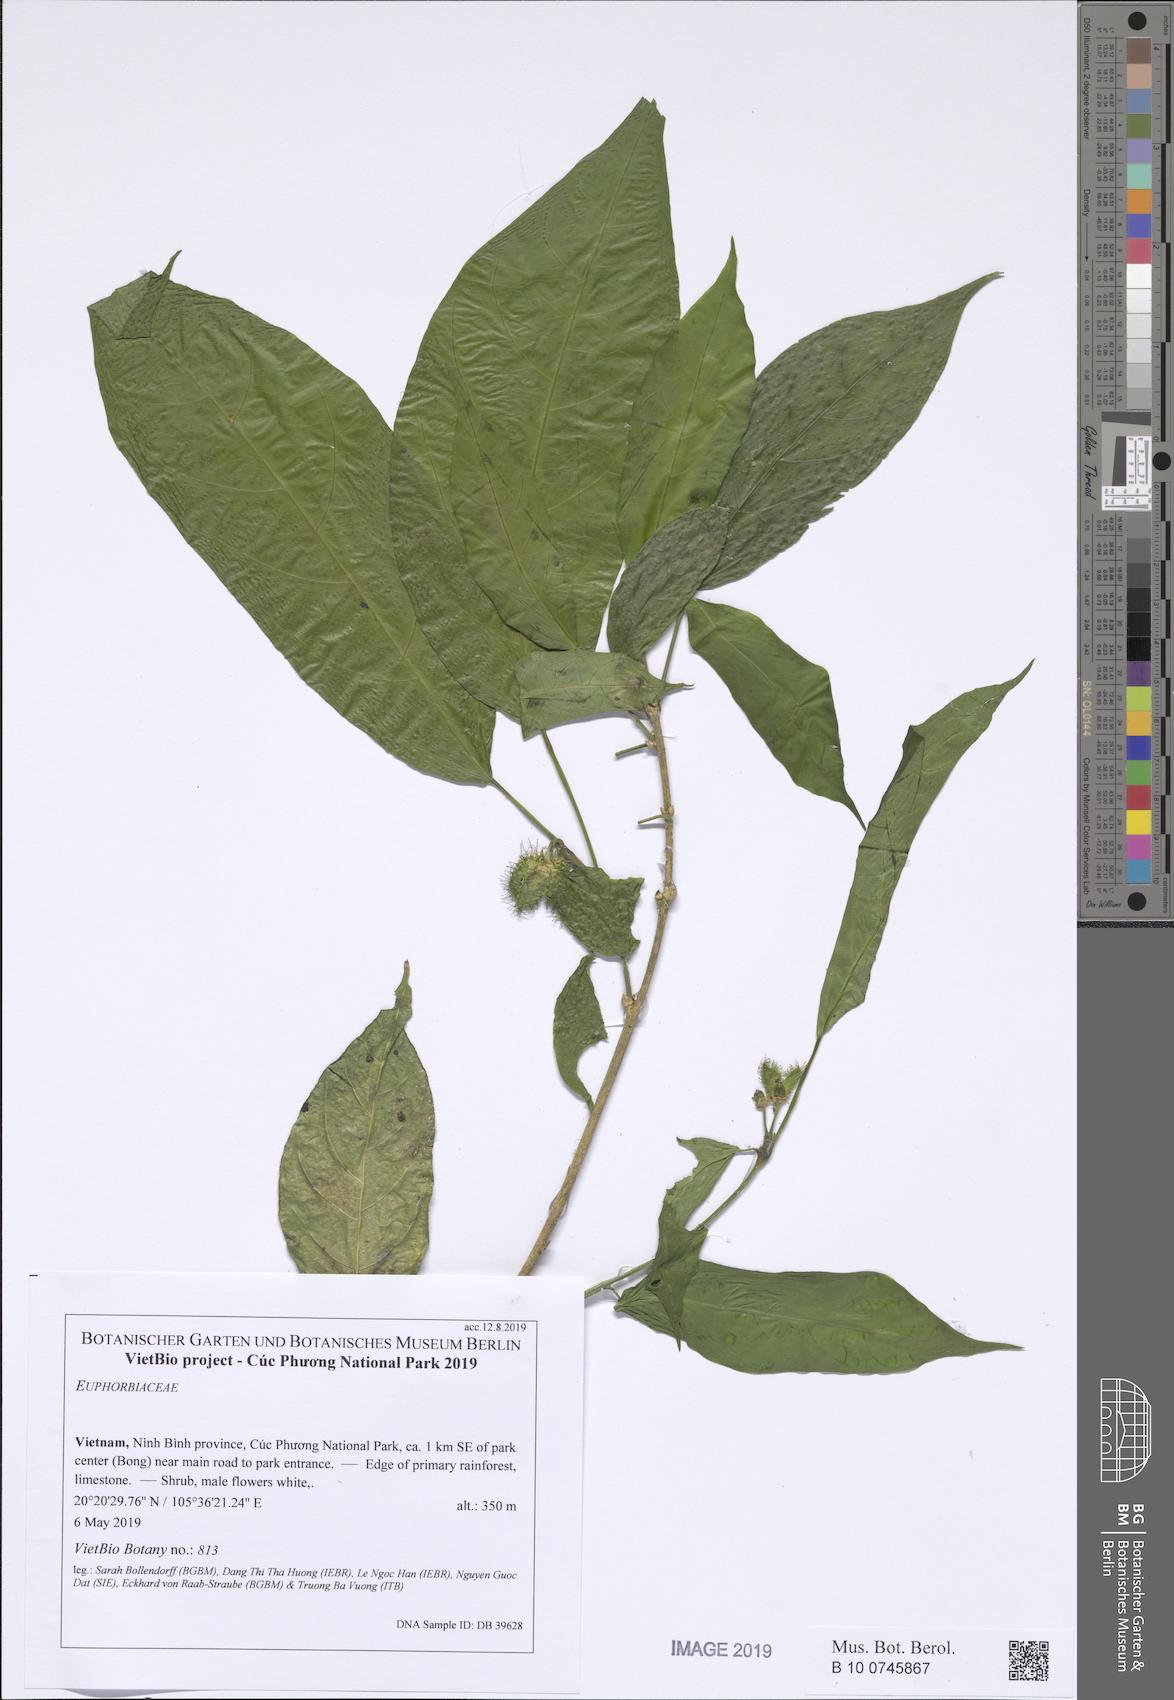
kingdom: Plantae
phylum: Tracheophyta
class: Magnoliopsida
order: Malpighiales
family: Euphorbiaceae
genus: Strophioblachia
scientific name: Strophioblachia fimbricalyx
